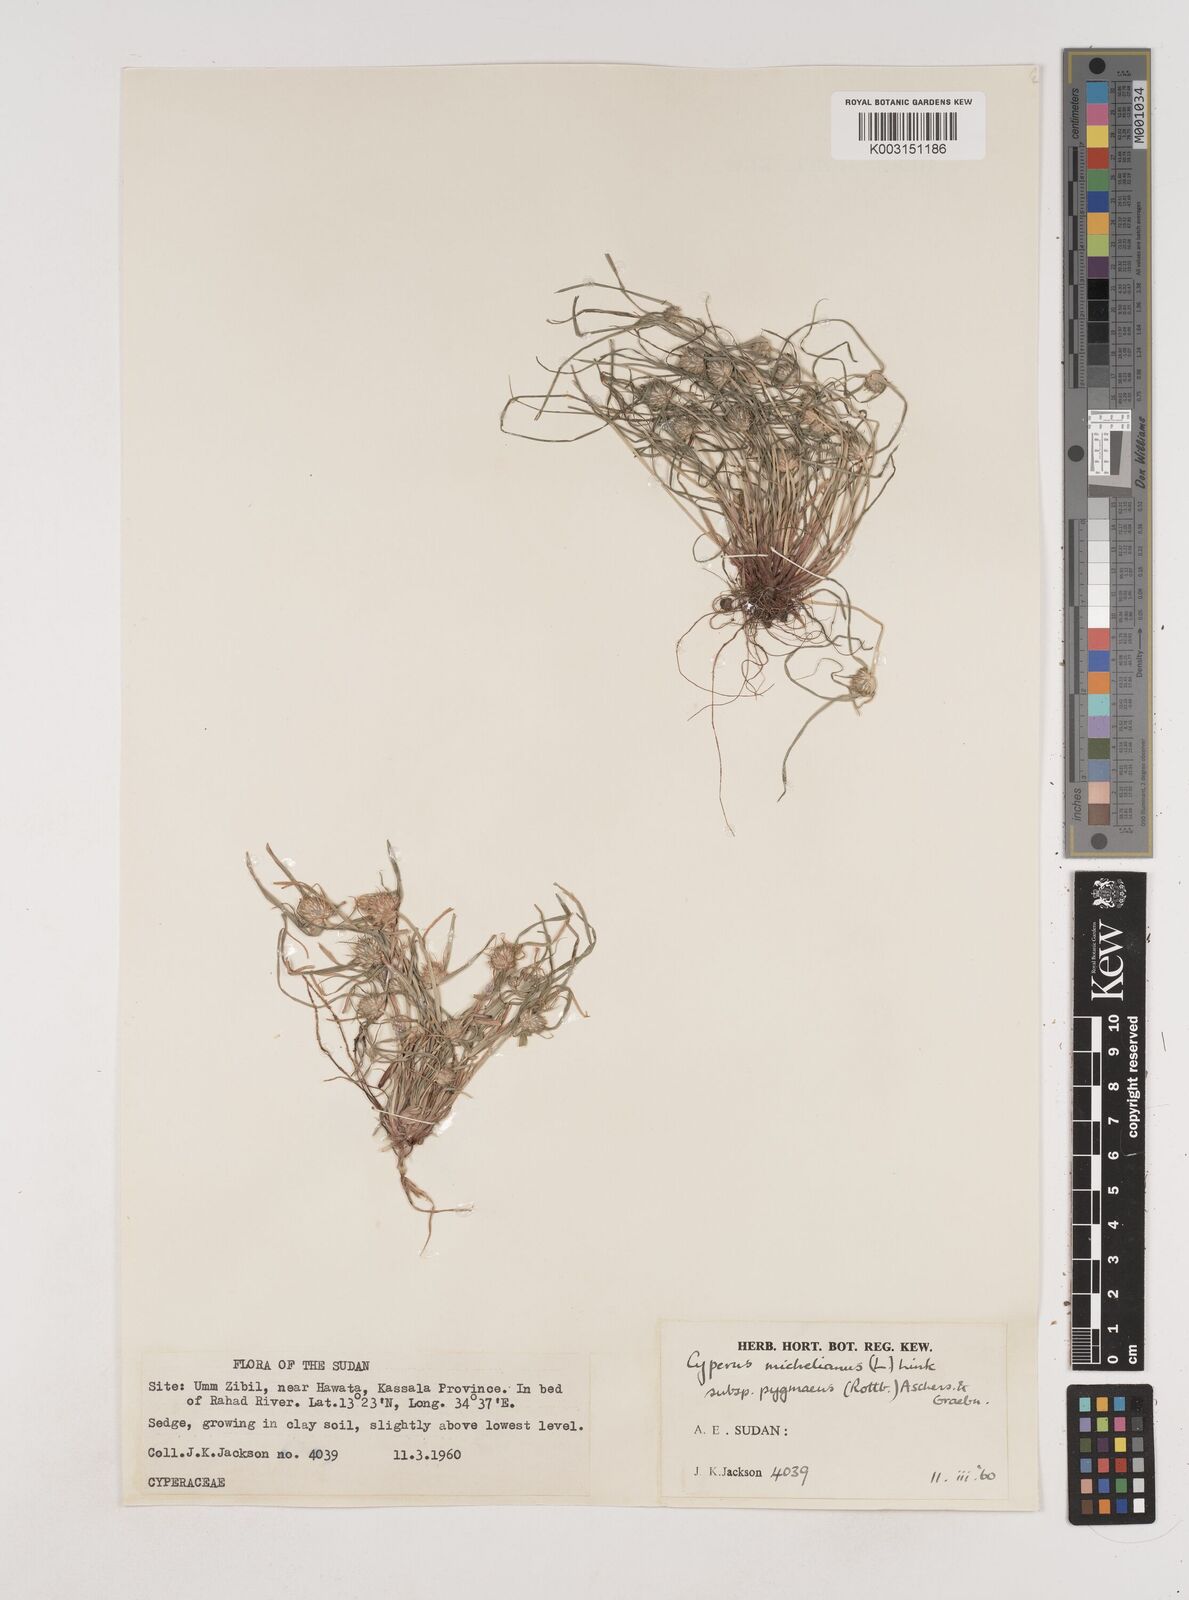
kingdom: Plantae
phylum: Tracheophyta
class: Liliopsida
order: Poales
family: Cyperaceae
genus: Cyperus
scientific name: Cyperus michelianus
